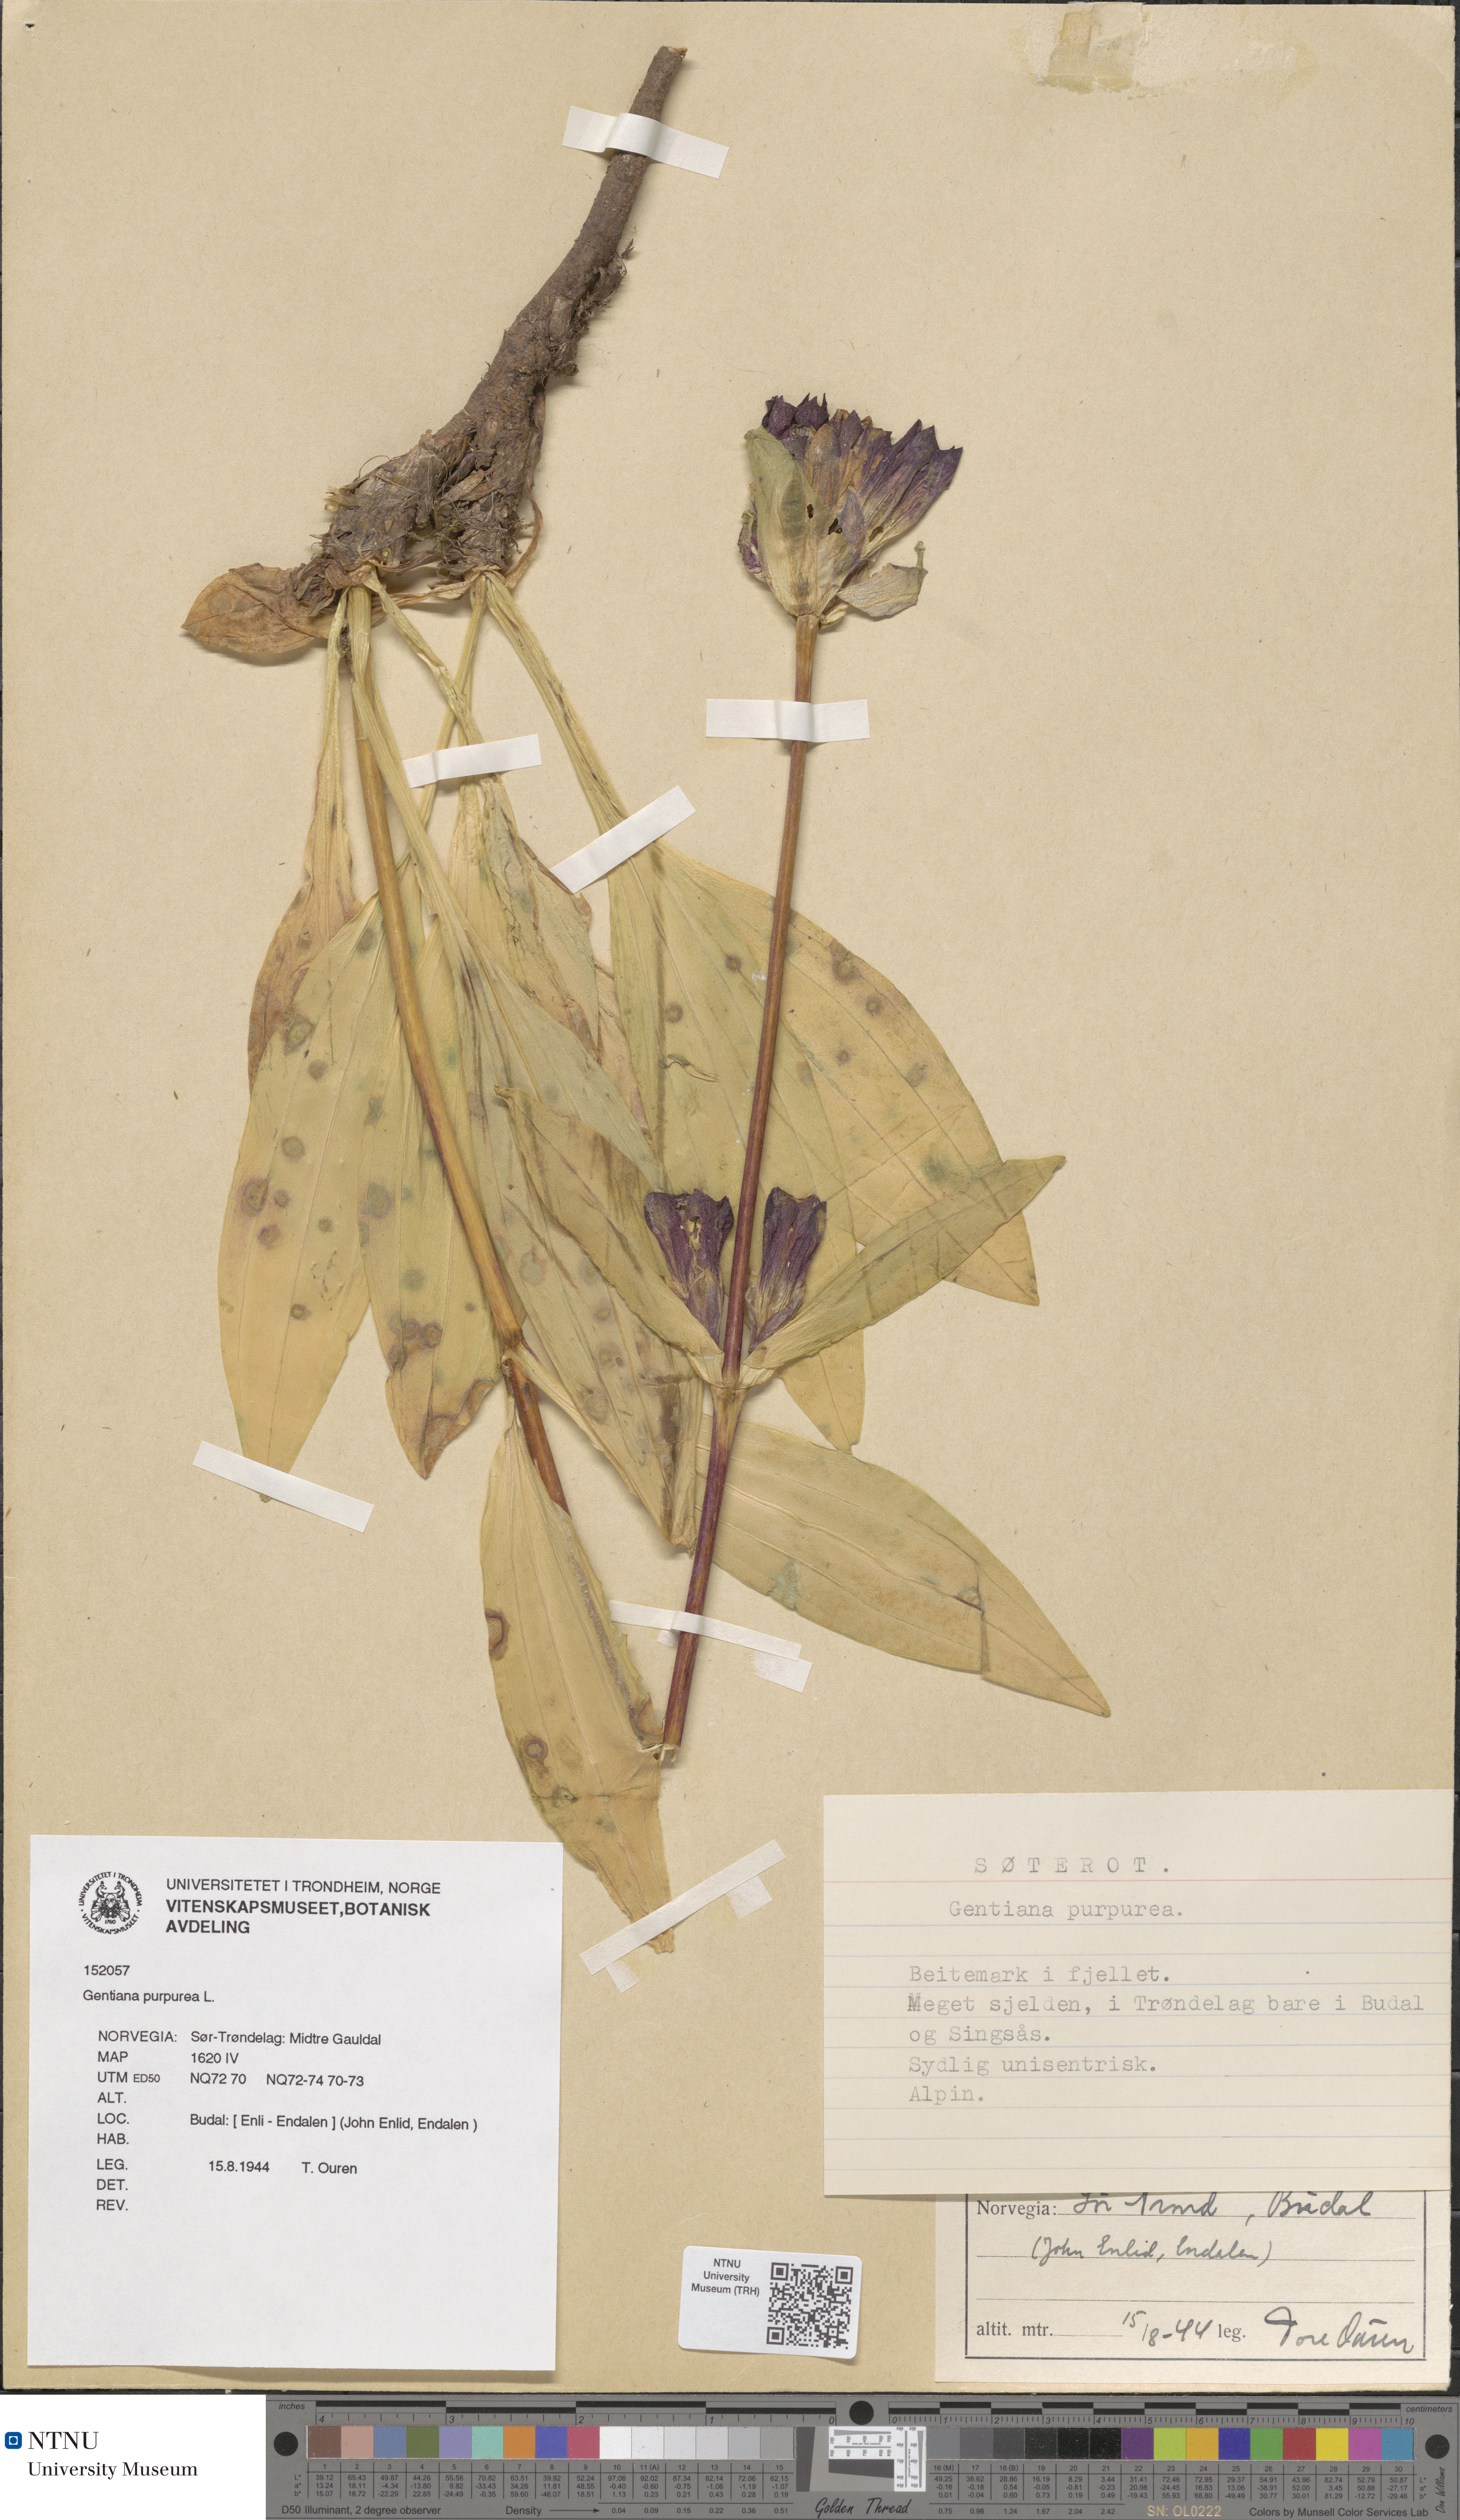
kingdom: Plantae
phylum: Tracheophyta
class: Magnoliopsida
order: Gentianales
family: Gentianaceae
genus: Gentiana
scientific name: Gentiana purpurea
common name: Purple gentian
